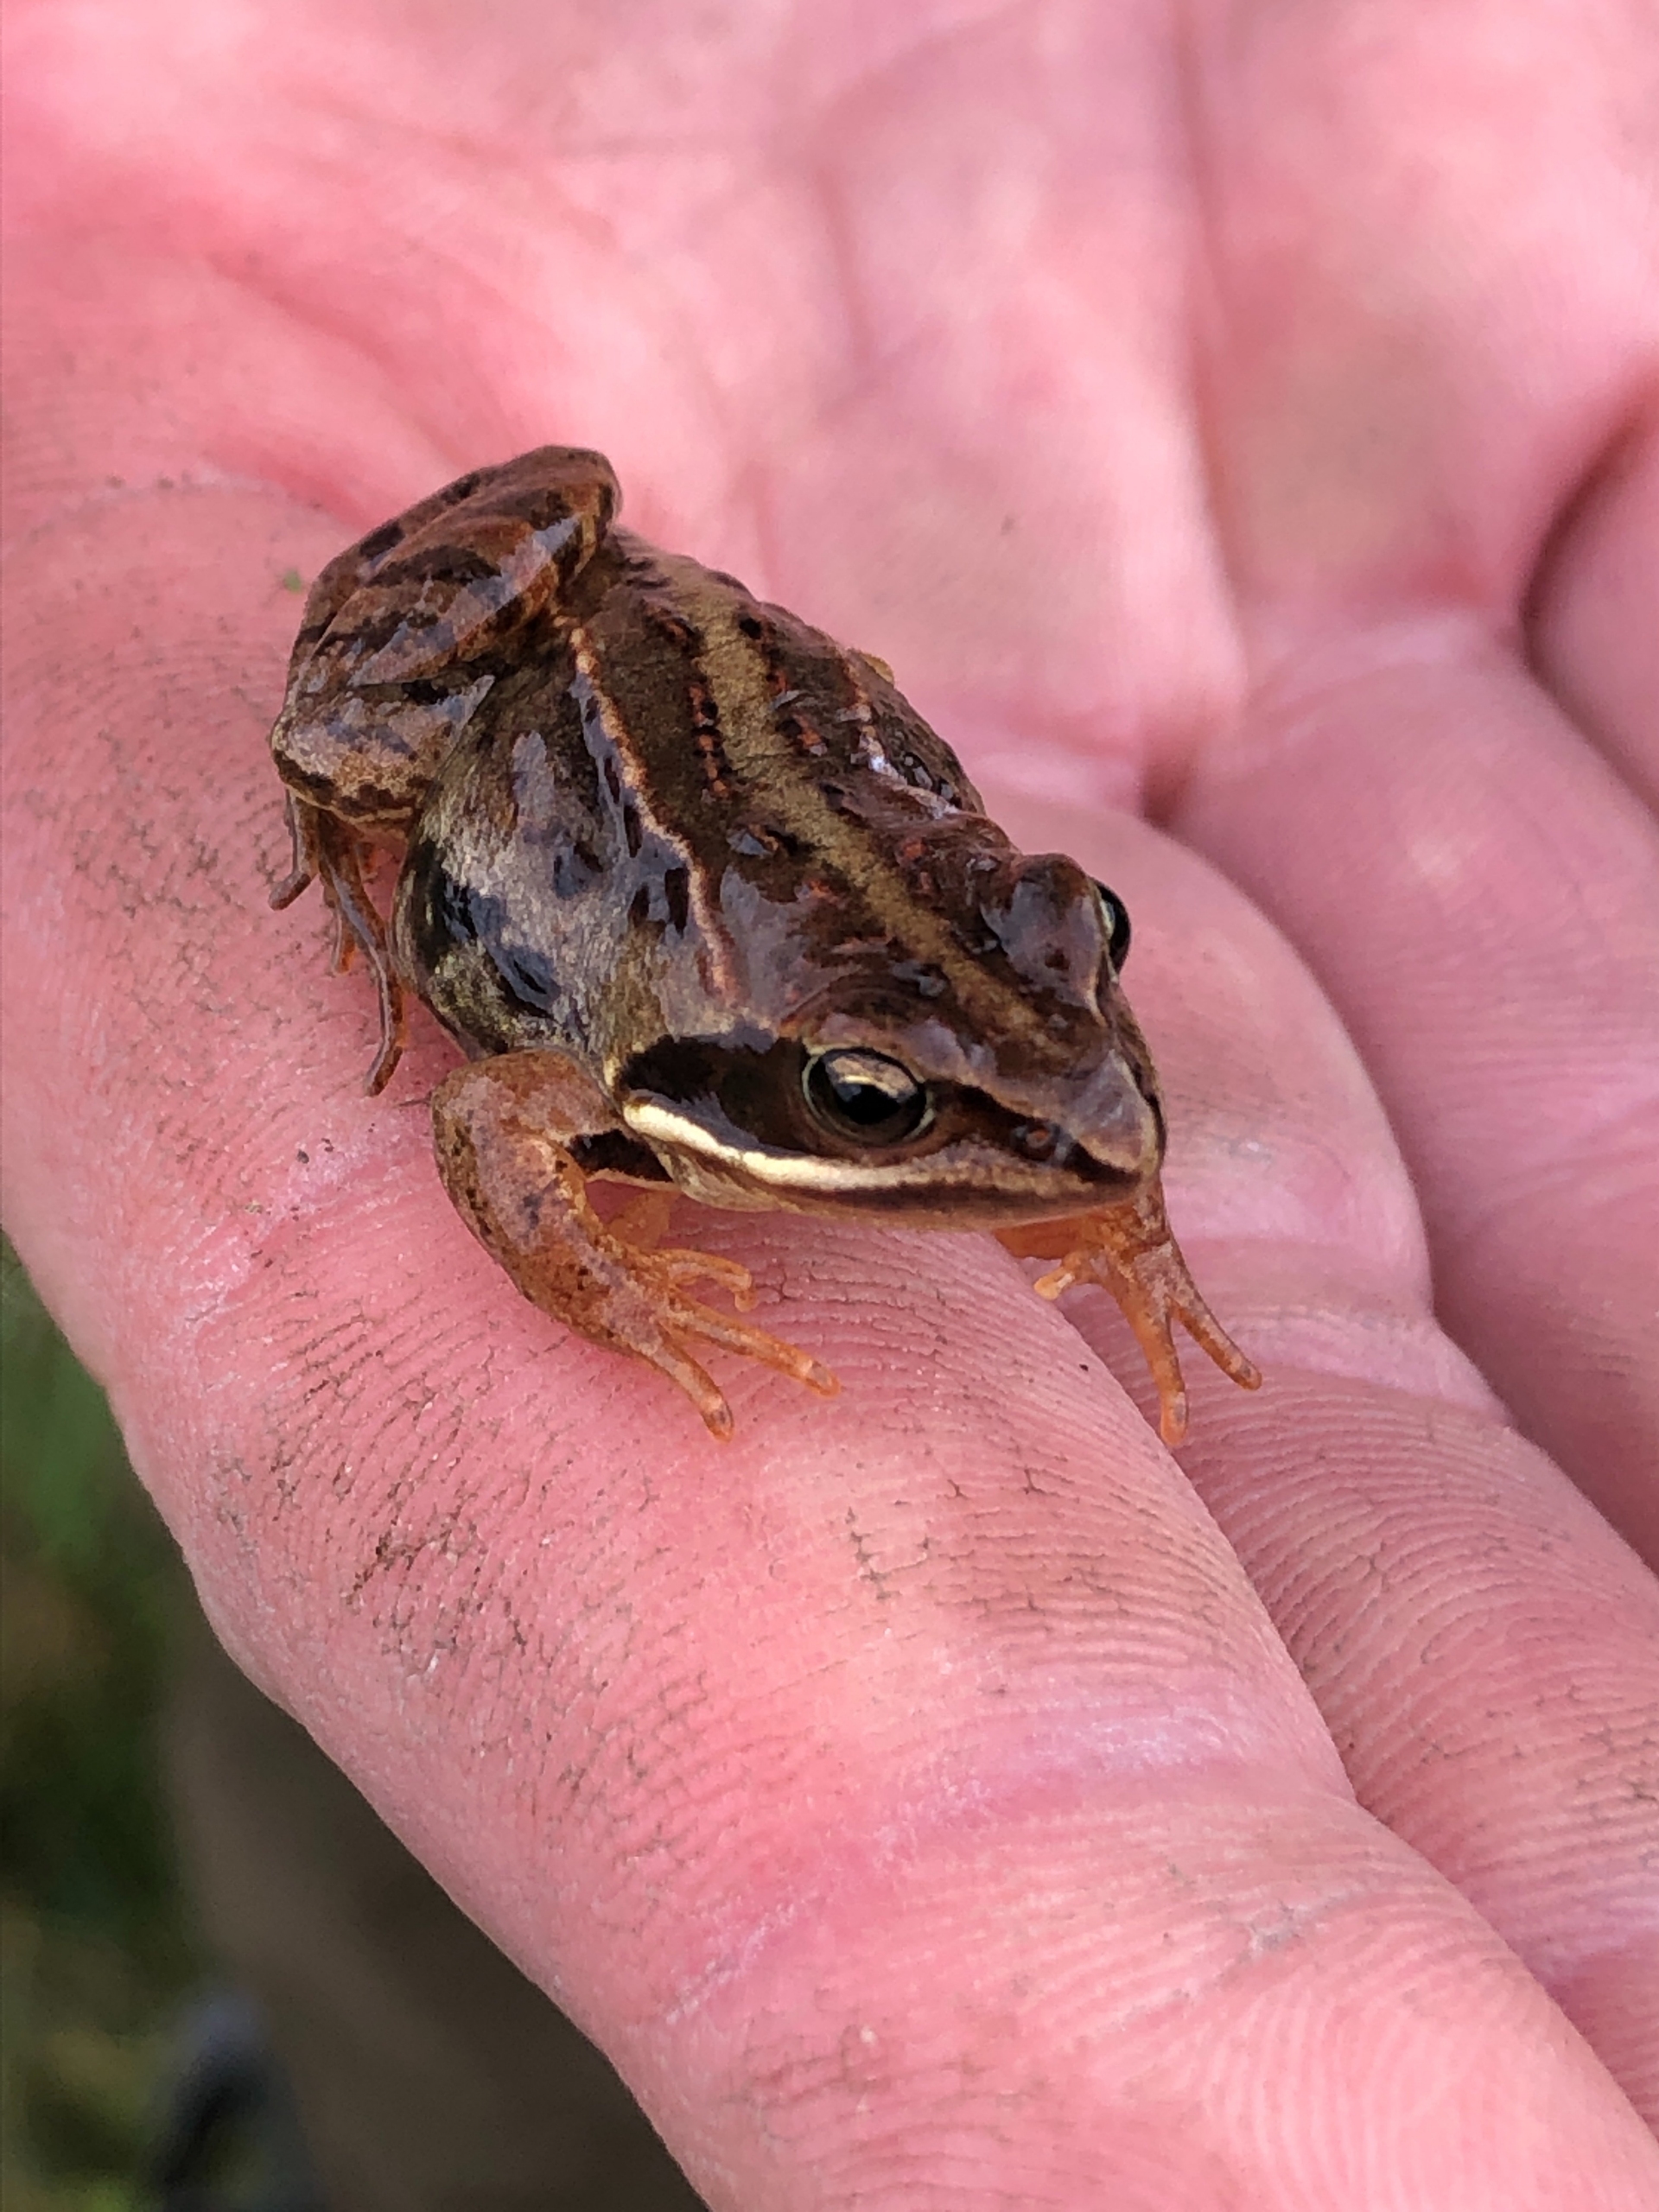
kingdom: Animalia
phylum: Chordata
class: Amphibia
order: Anura
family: Ranidae
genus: Rana
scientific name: Rana arvalis
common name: Spidssnudet frø
